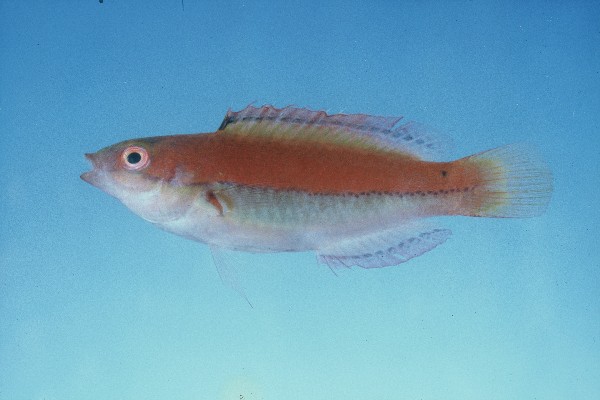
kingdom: Animalia
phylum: Chordata
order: Perciformes
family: Labridae
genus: Cirrhilabrus
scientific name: Cirrhilabrus katherinae
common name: Katherine's wrasse
